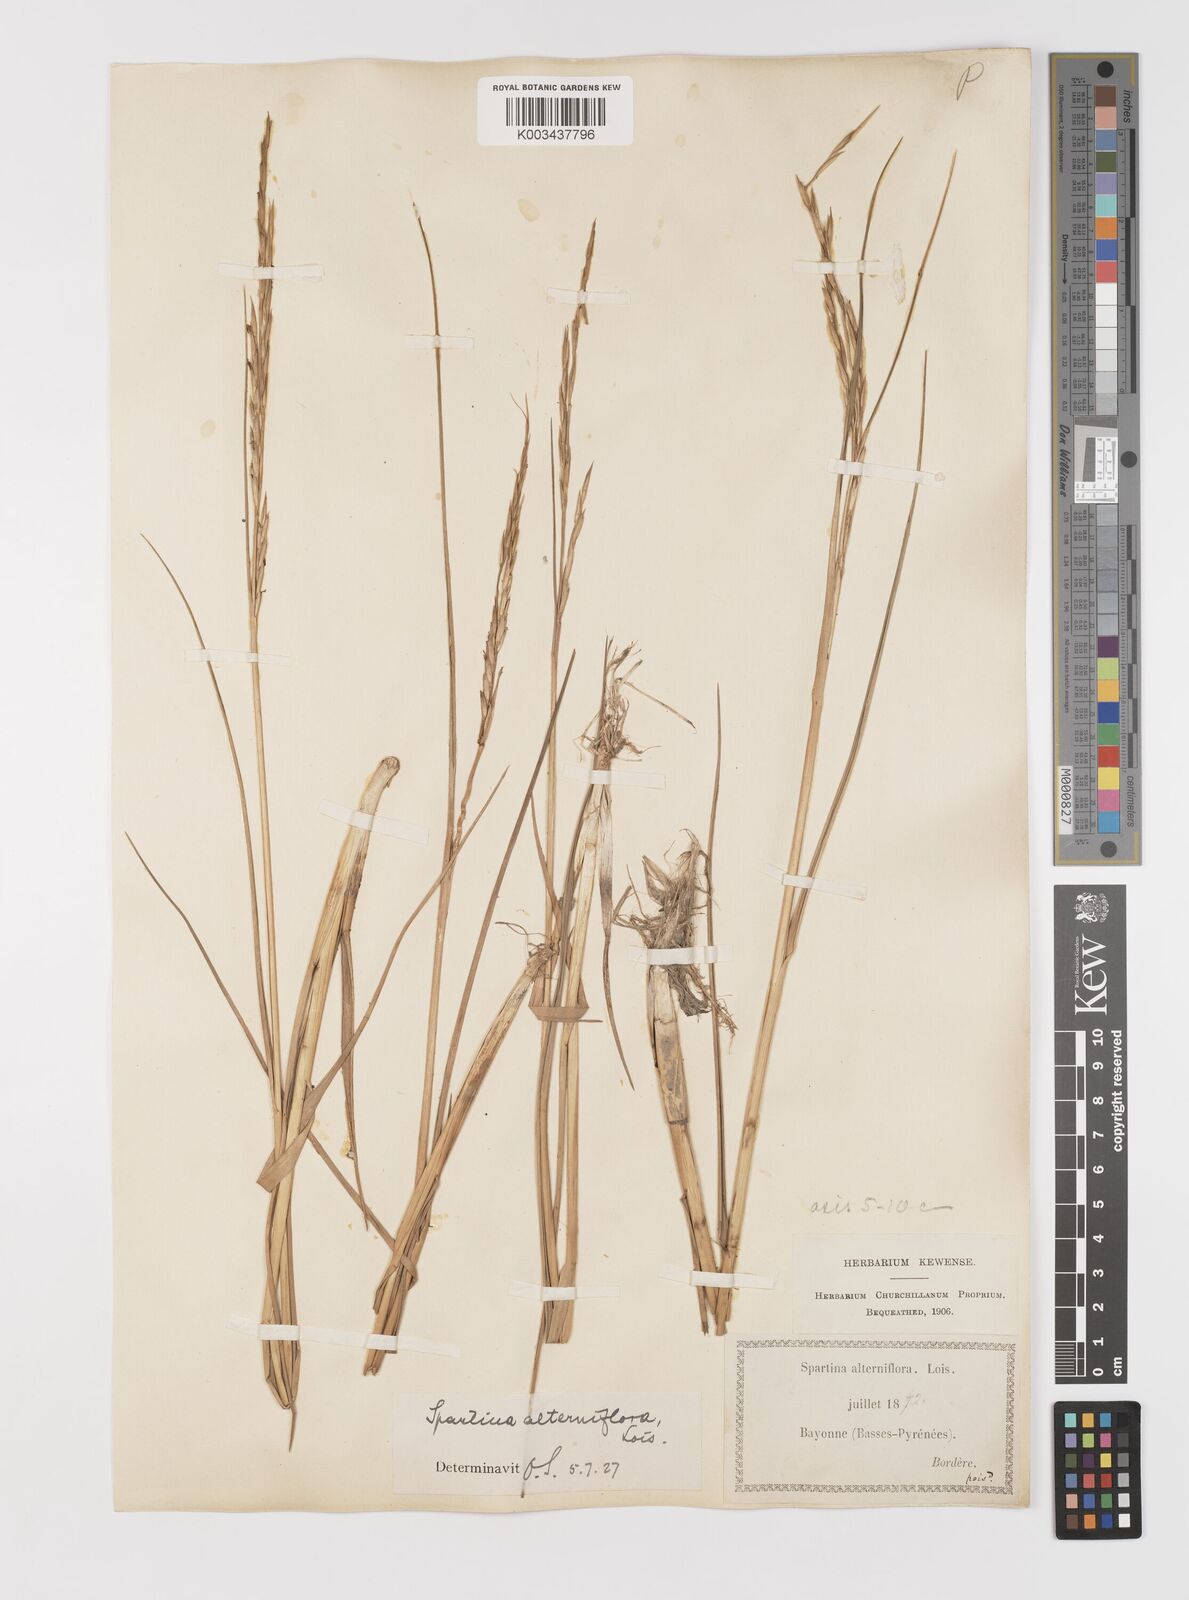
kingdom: Plantae
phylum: Tracheophyta
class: Liliopsida
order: Poales
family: Poaceae
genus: Sporobolus
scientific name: Sporobolus alterniflorus
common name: Atlantic cordgrass
